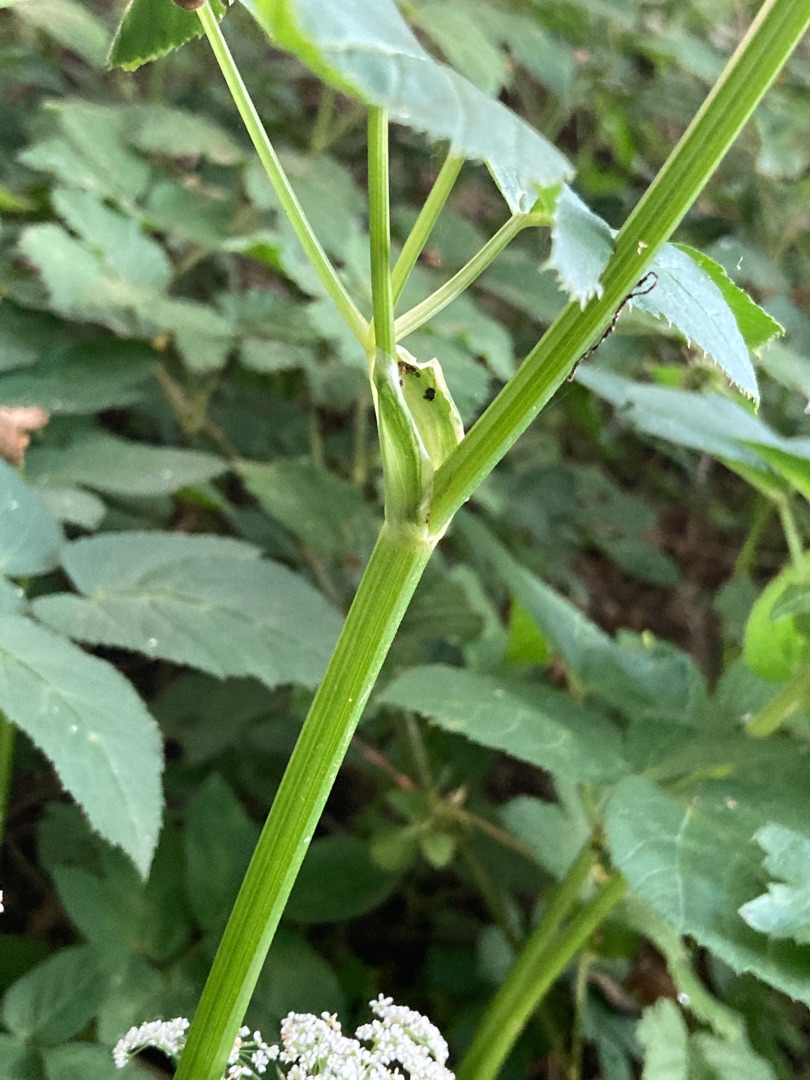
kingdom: Plantae
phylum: Tracheophyta
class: Magnoliopsida
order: Apiales
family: Apiaceae
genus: Aegopodium
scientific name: Aegopodium podagraria
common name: Skvalderkål
